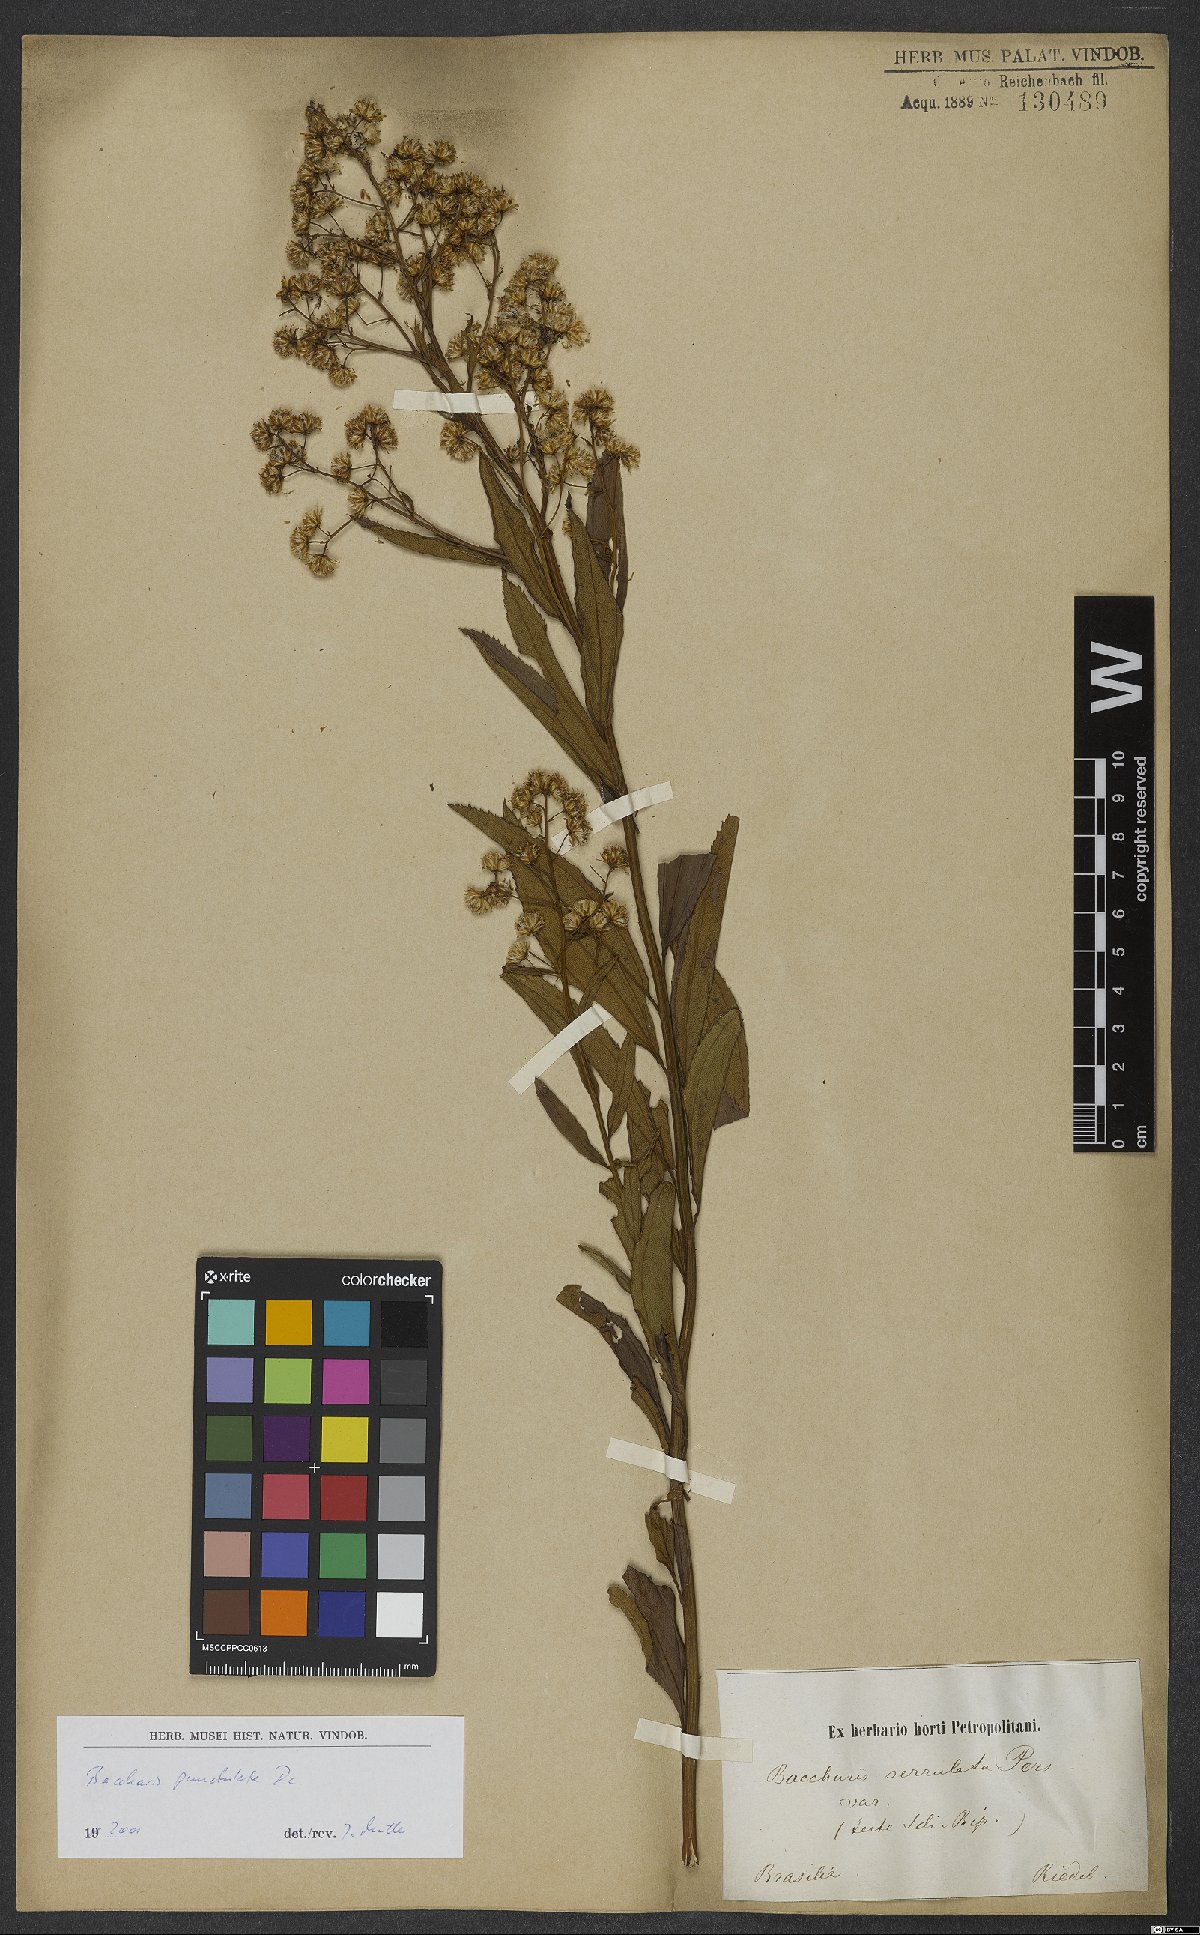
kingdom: Plantae
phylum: Tracheophyta
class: Magnoliopsida
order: Asterales
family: Asteraceae
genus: Baccharis
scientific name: Baccharis punctulata
